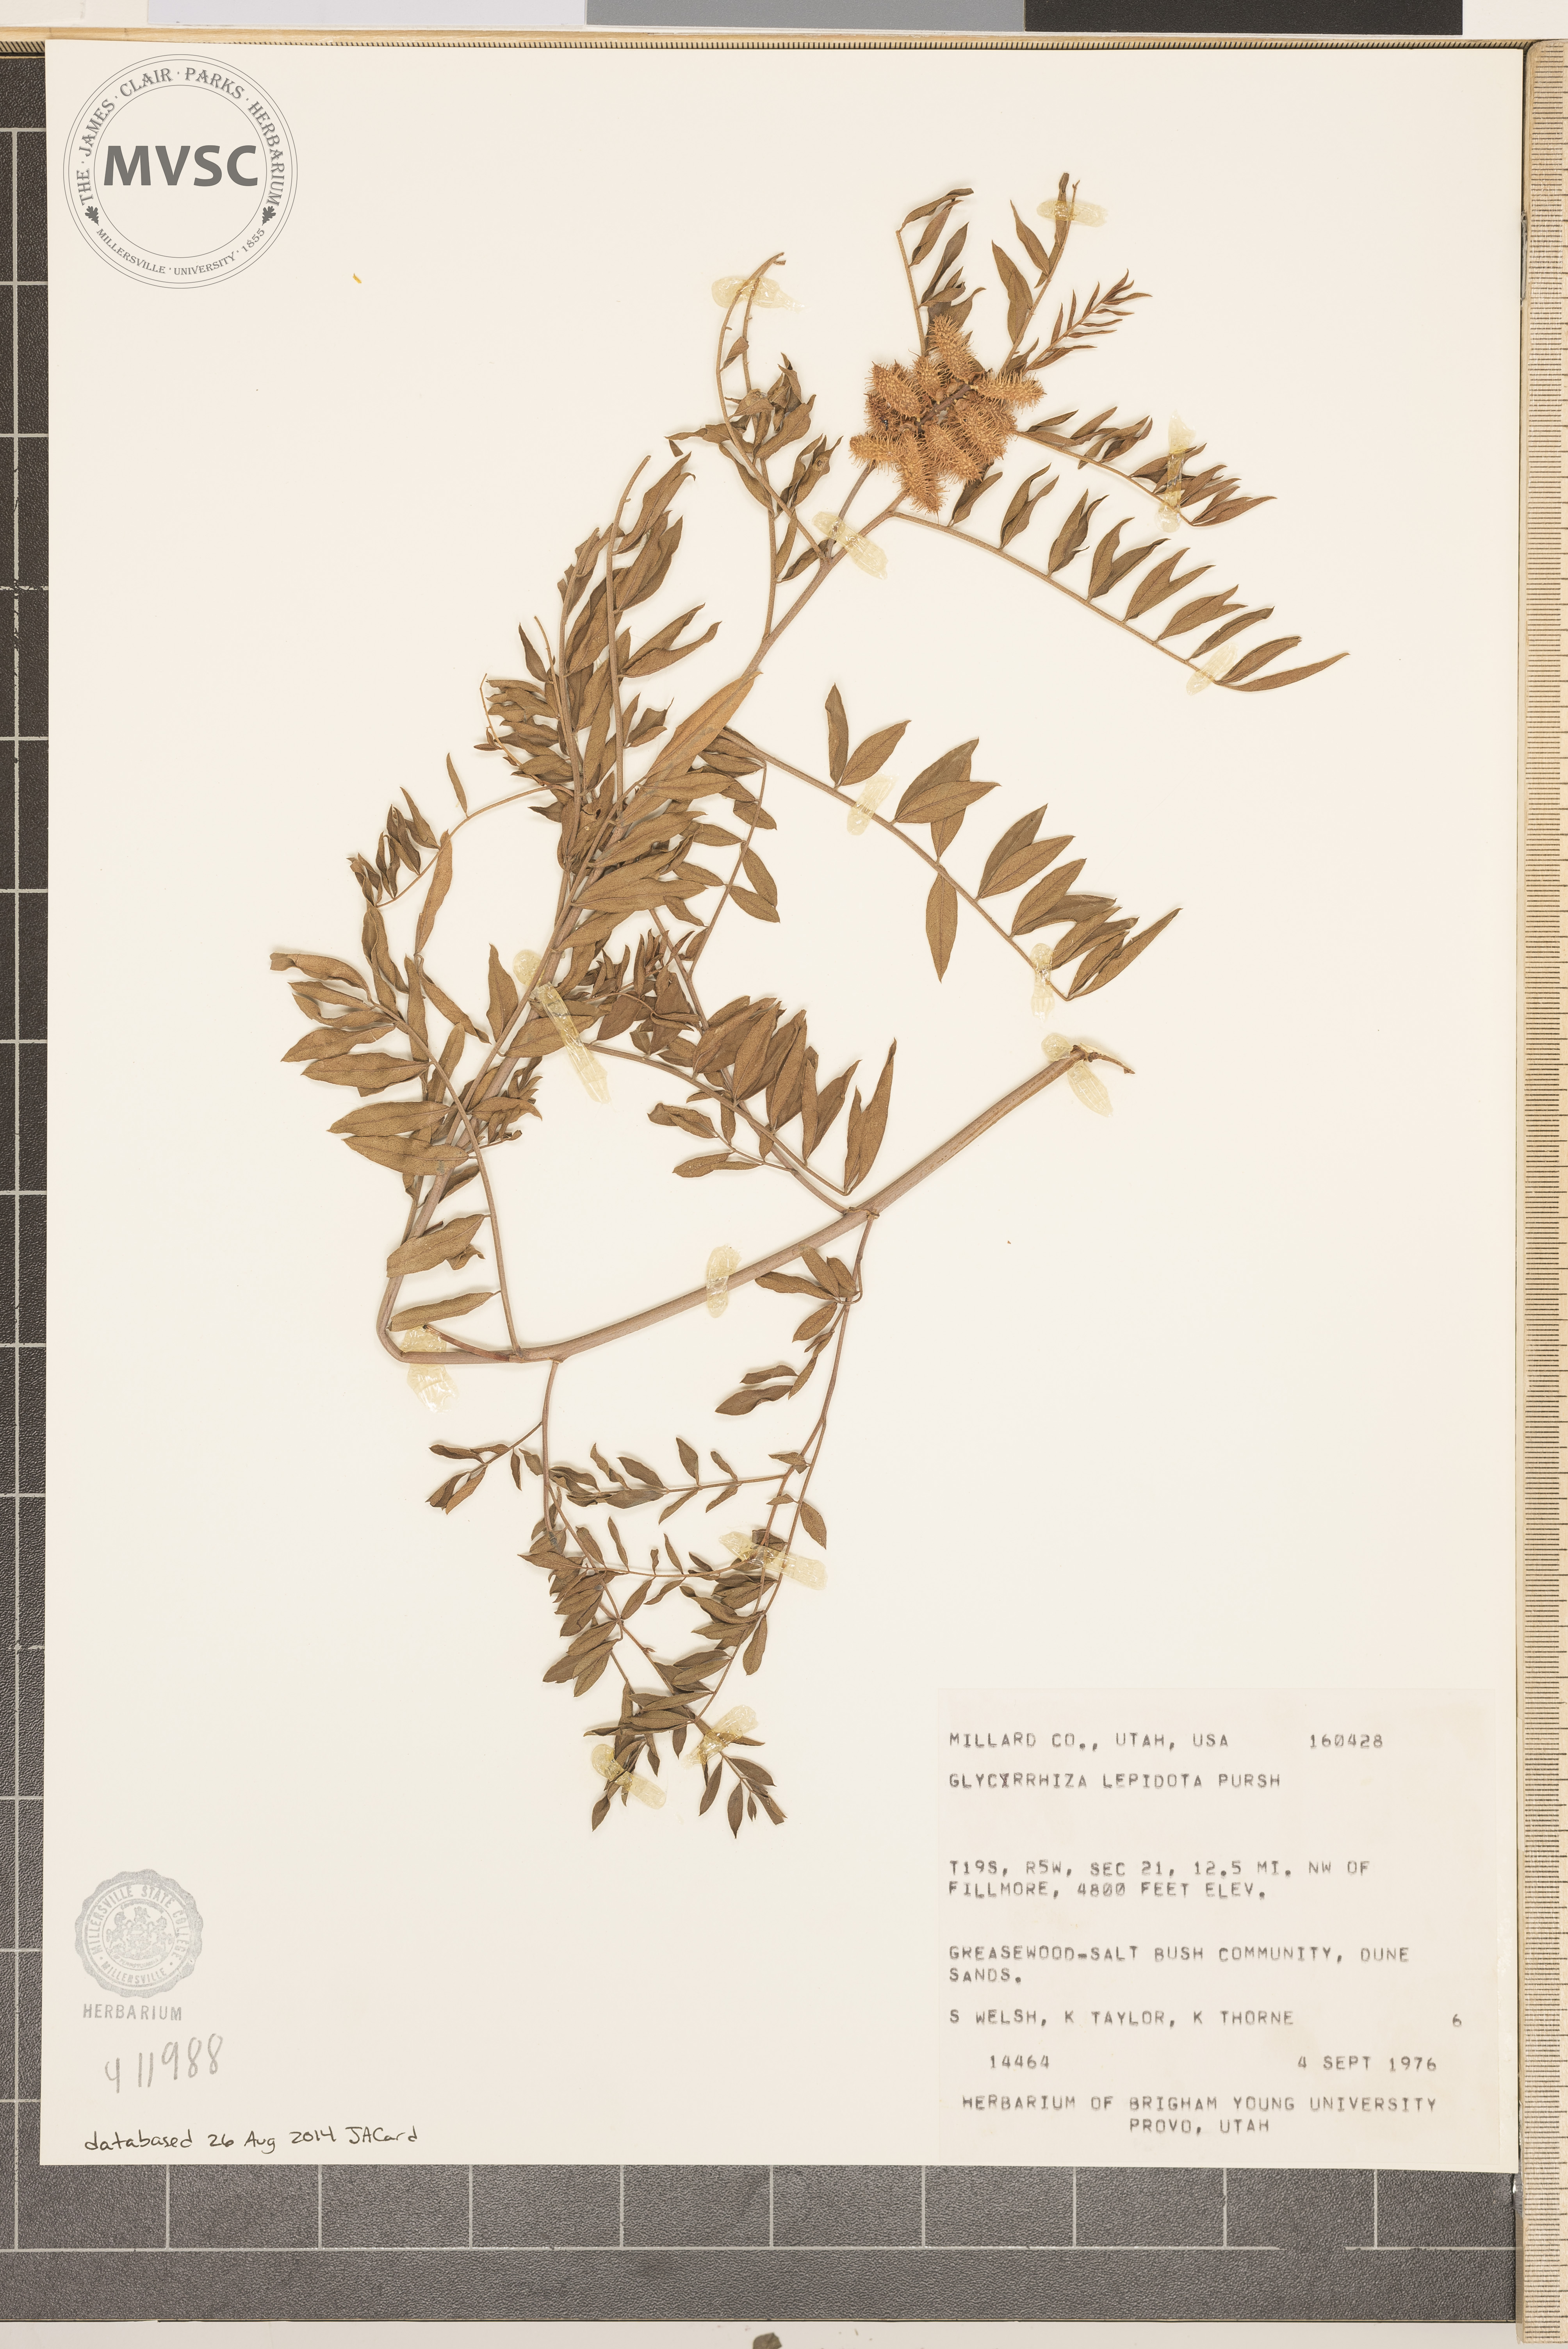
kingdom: Plantae
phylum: Tracheophyta
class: Magnoliopsida
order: Fabales
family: Fabaceae
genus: Glycyrrhiza
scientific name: Glycyrrhiza lepidota
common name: American liquorice
